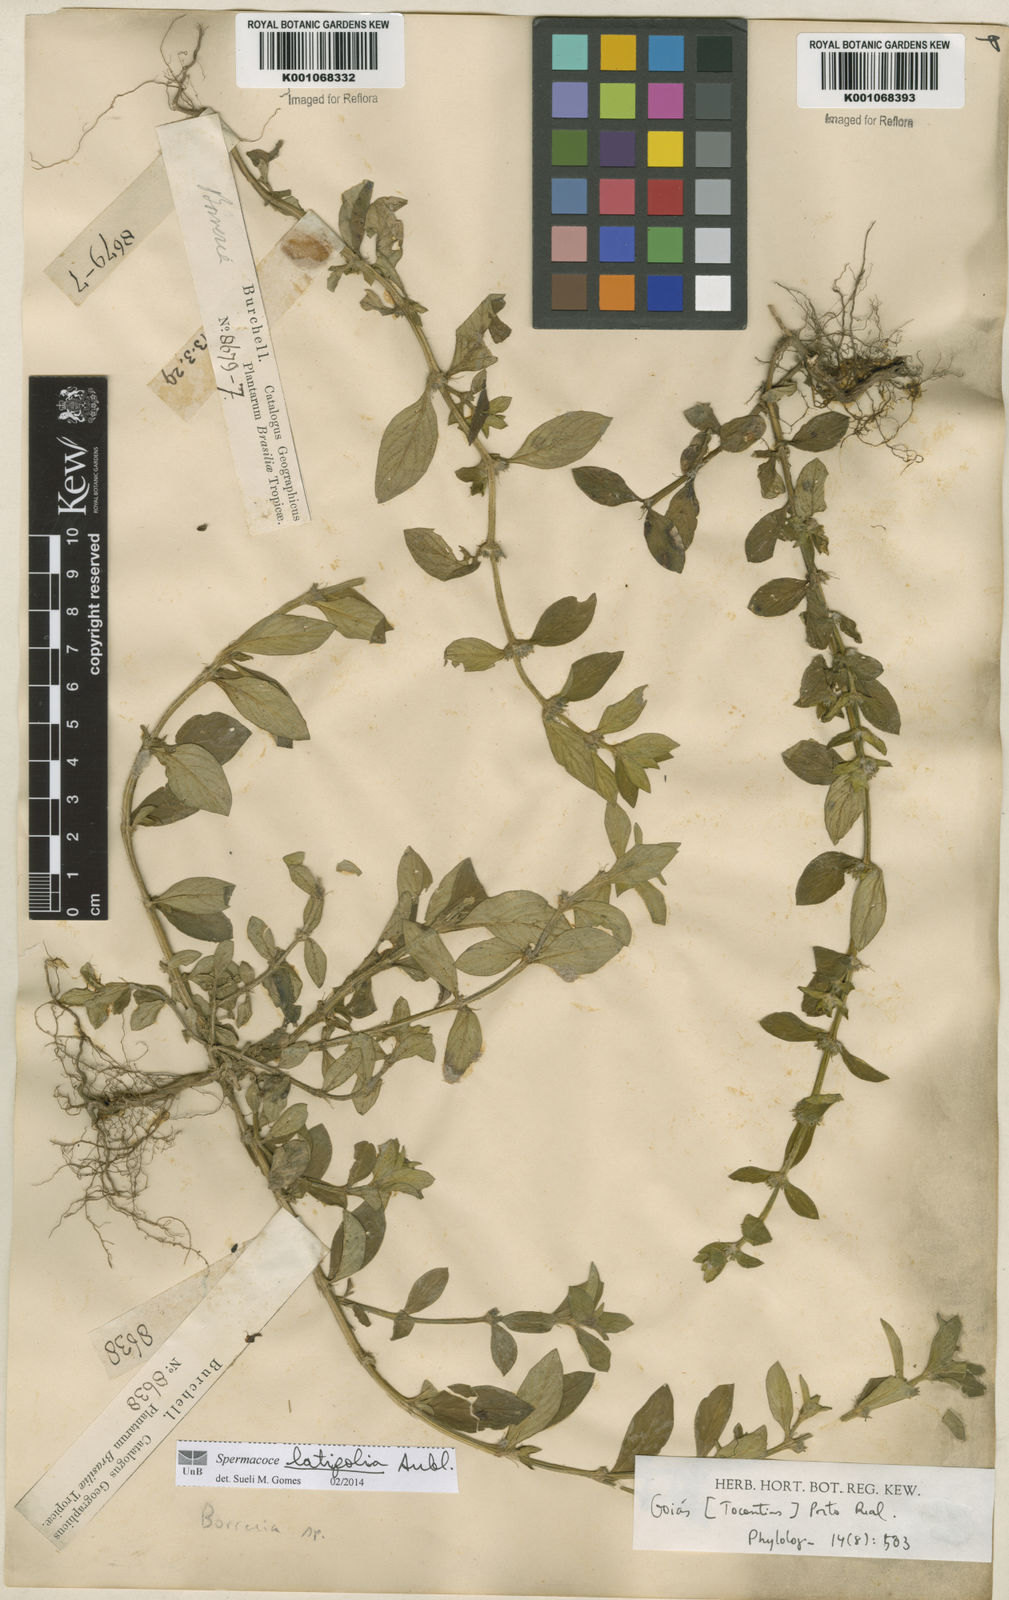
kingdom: Plantae
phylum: Tracheophyta
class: Magnoliopsida
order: Gentianales
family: Rubiaceae
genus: Spermacoce
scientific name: Spermacoce
